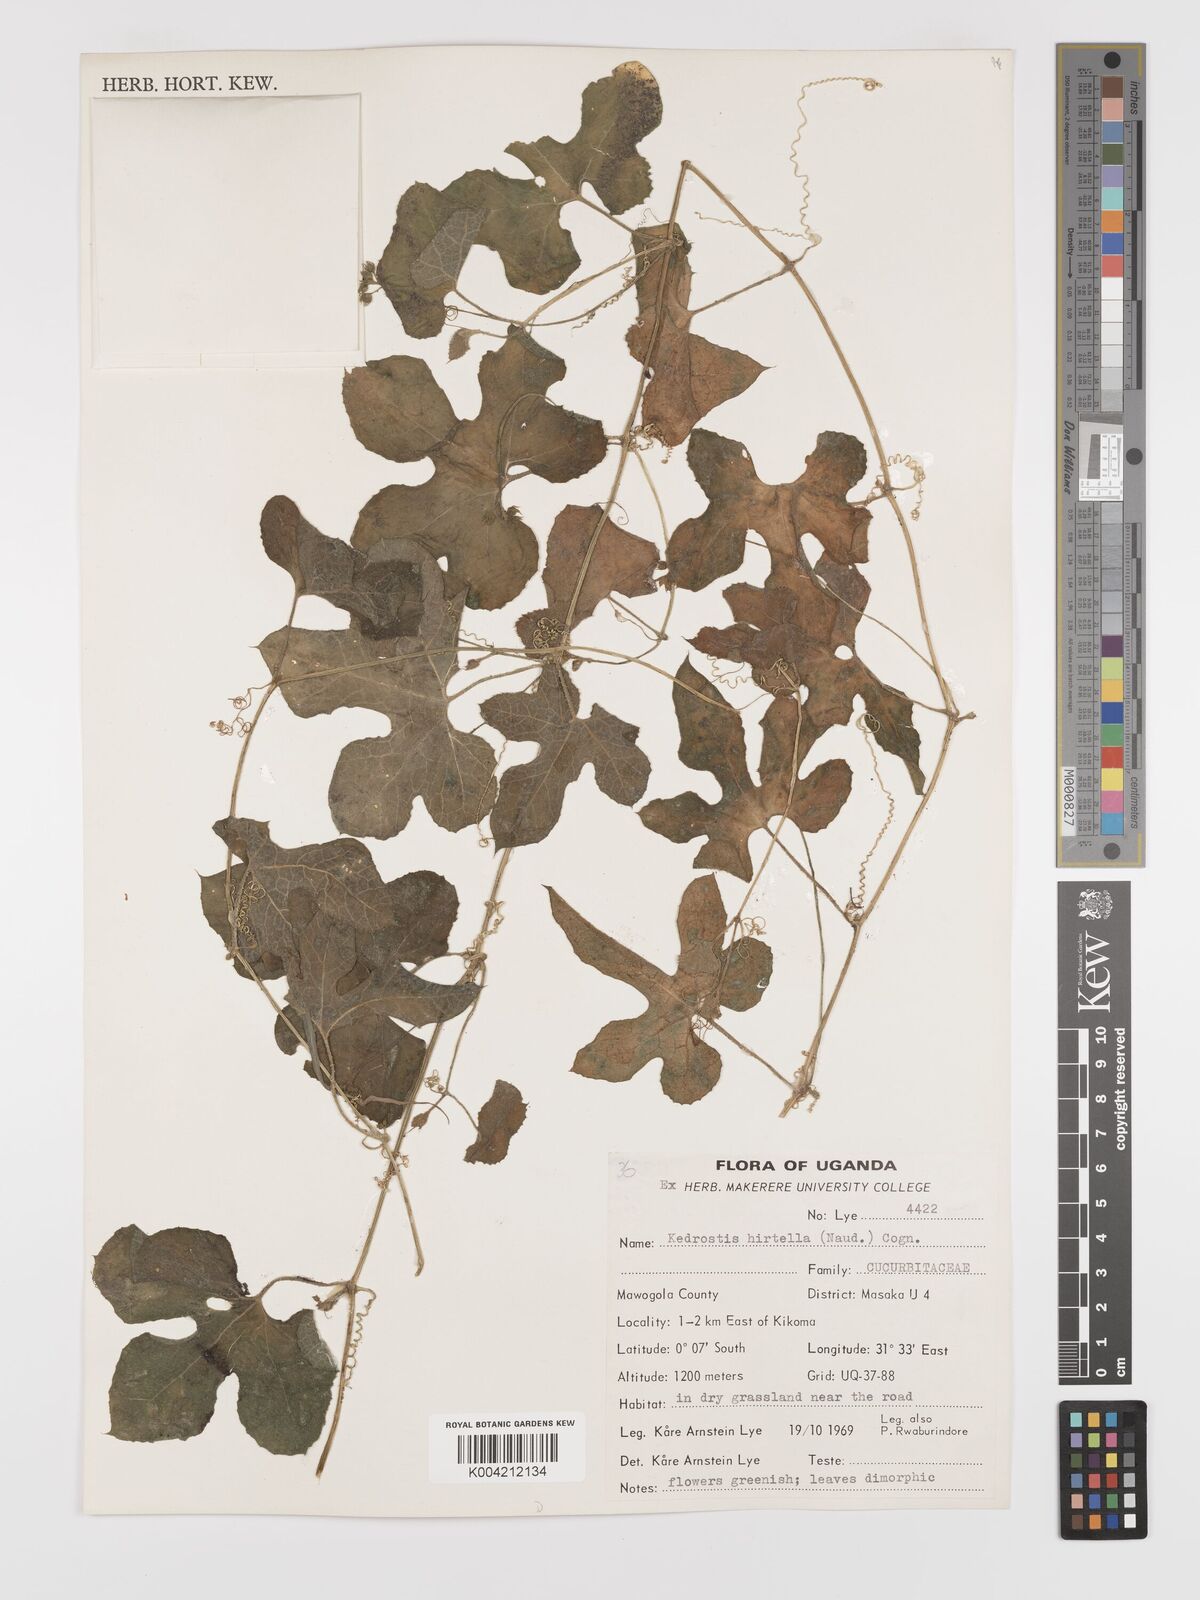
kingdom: Plantae
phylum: Tracheophyta
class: Magnoliopsida
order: Cucurbitales
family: Cucurbitaceae
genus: Kedrostis
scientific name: Kedrostis leloja
